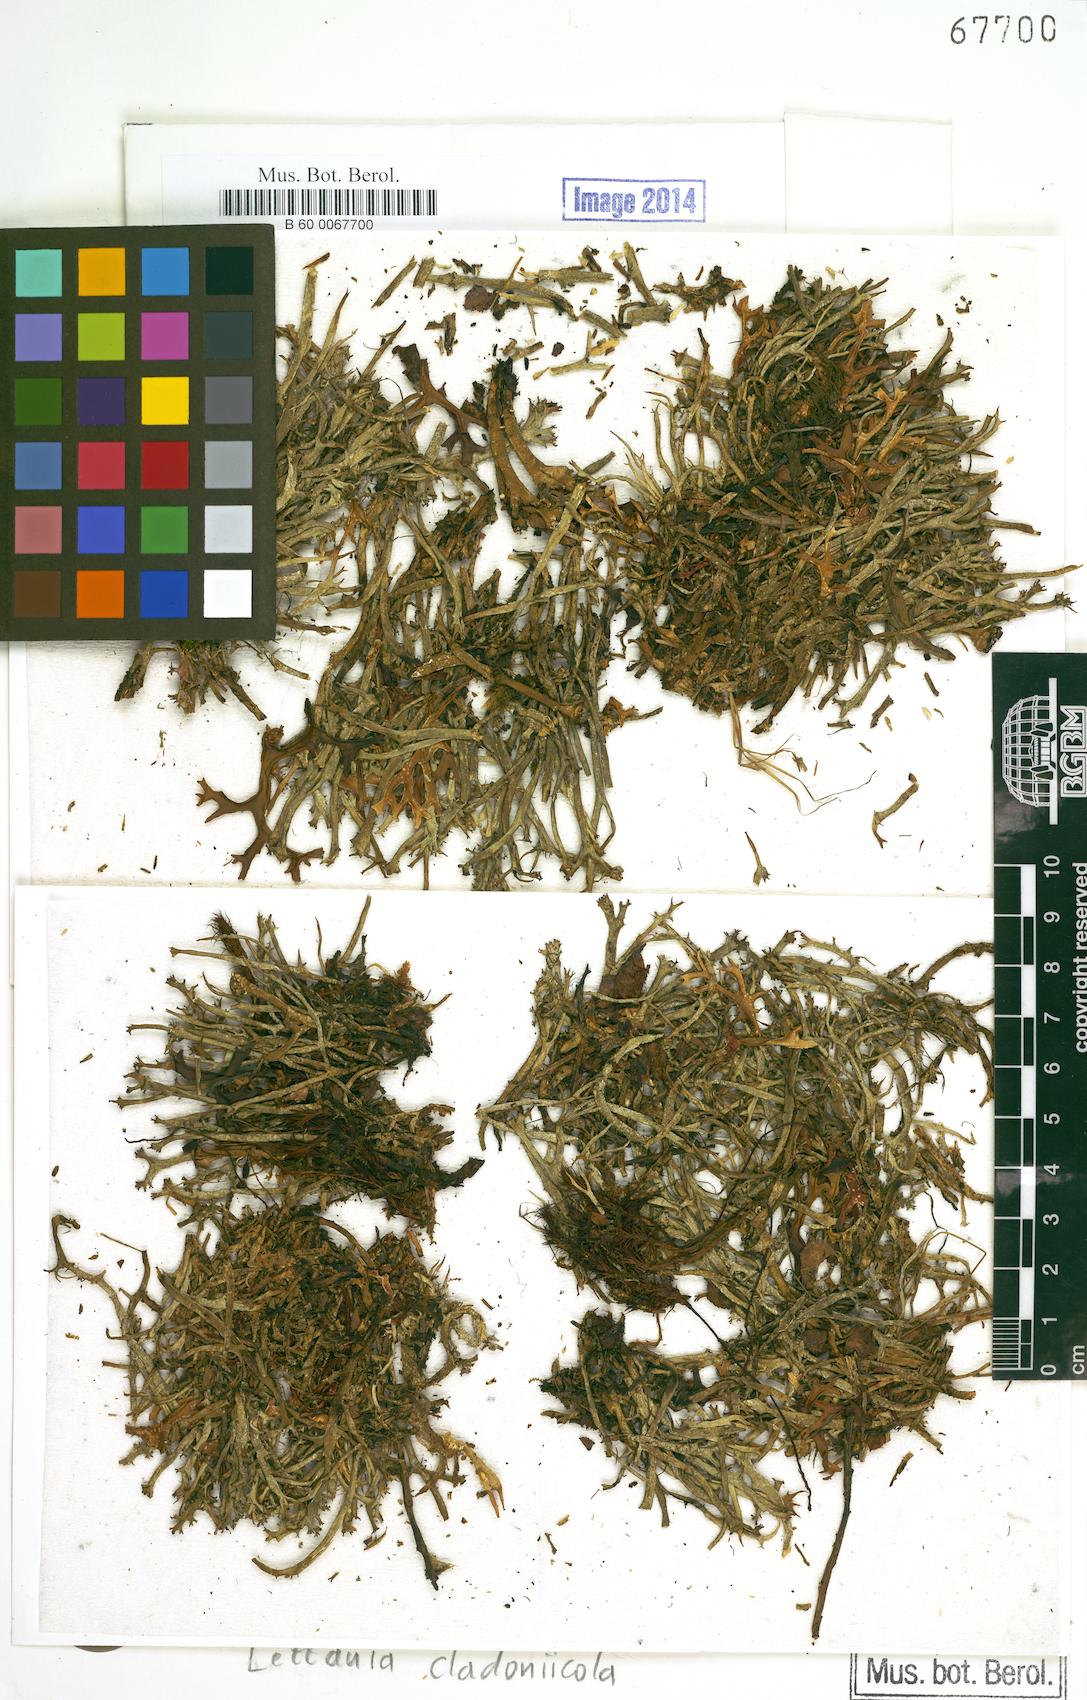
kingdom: Fungi
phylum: Ascomycota
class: Lecanoromycetes
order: Ostropales
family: Stictidaceae
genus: Cryptodiscus
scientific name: Cryptodiscus cladoniicola
